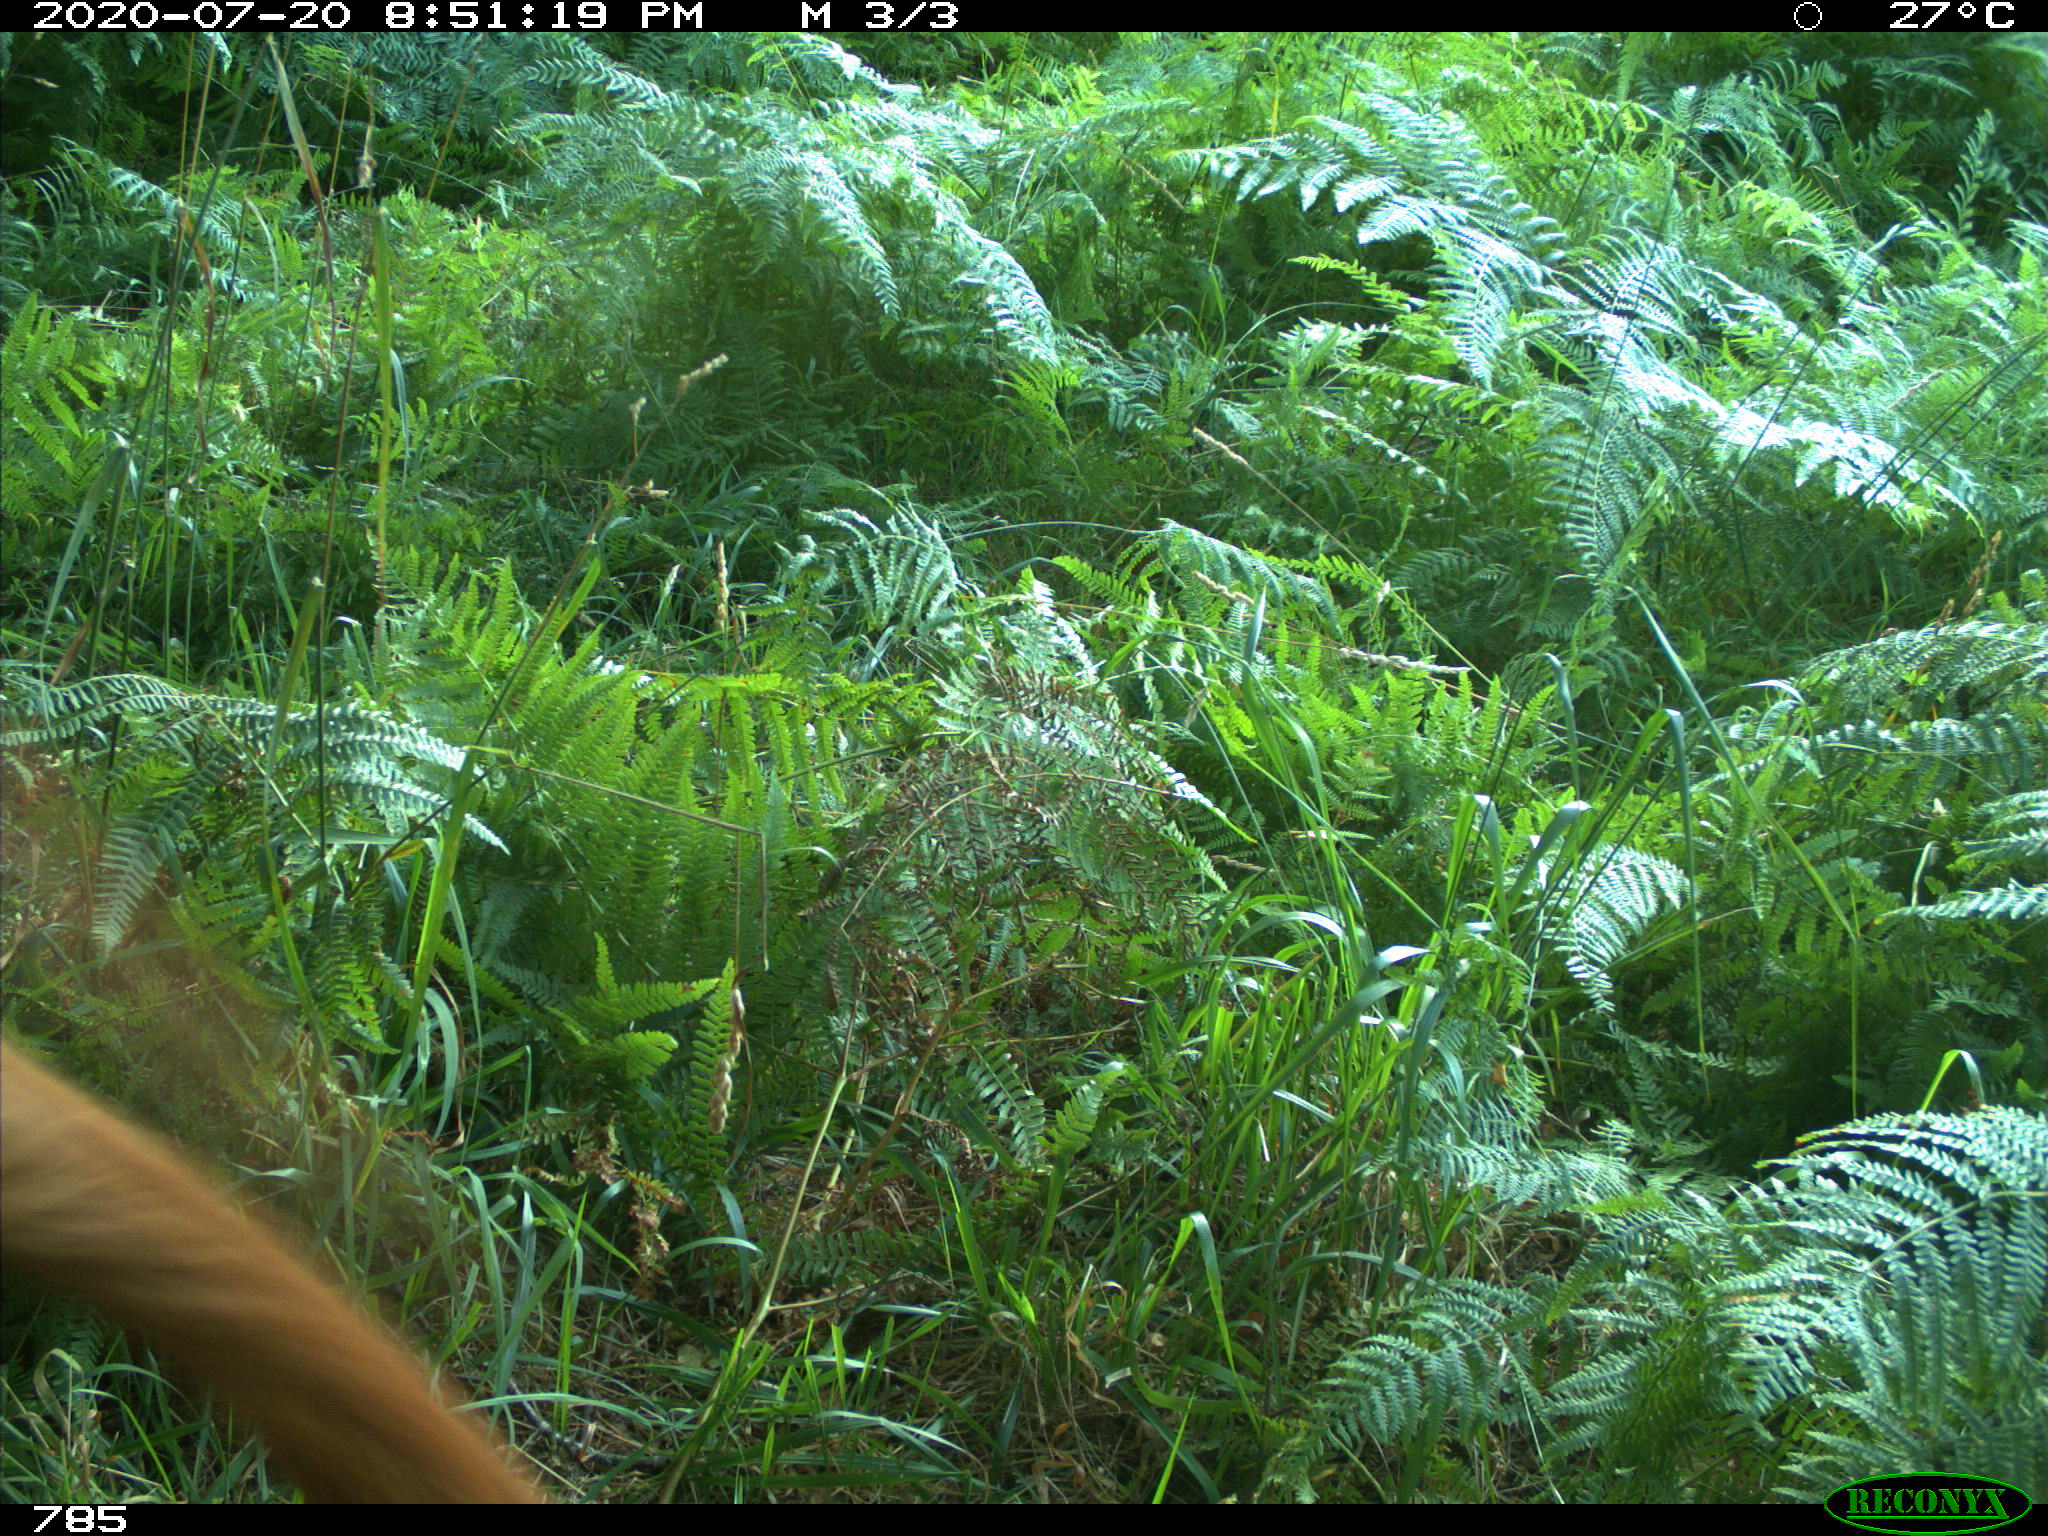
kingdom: Animalia
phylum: Chordata
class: Mammalia
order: Artiodactyla
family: Bovidae
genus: Bos
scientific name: Bos taurus
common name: Domesticated cattle
